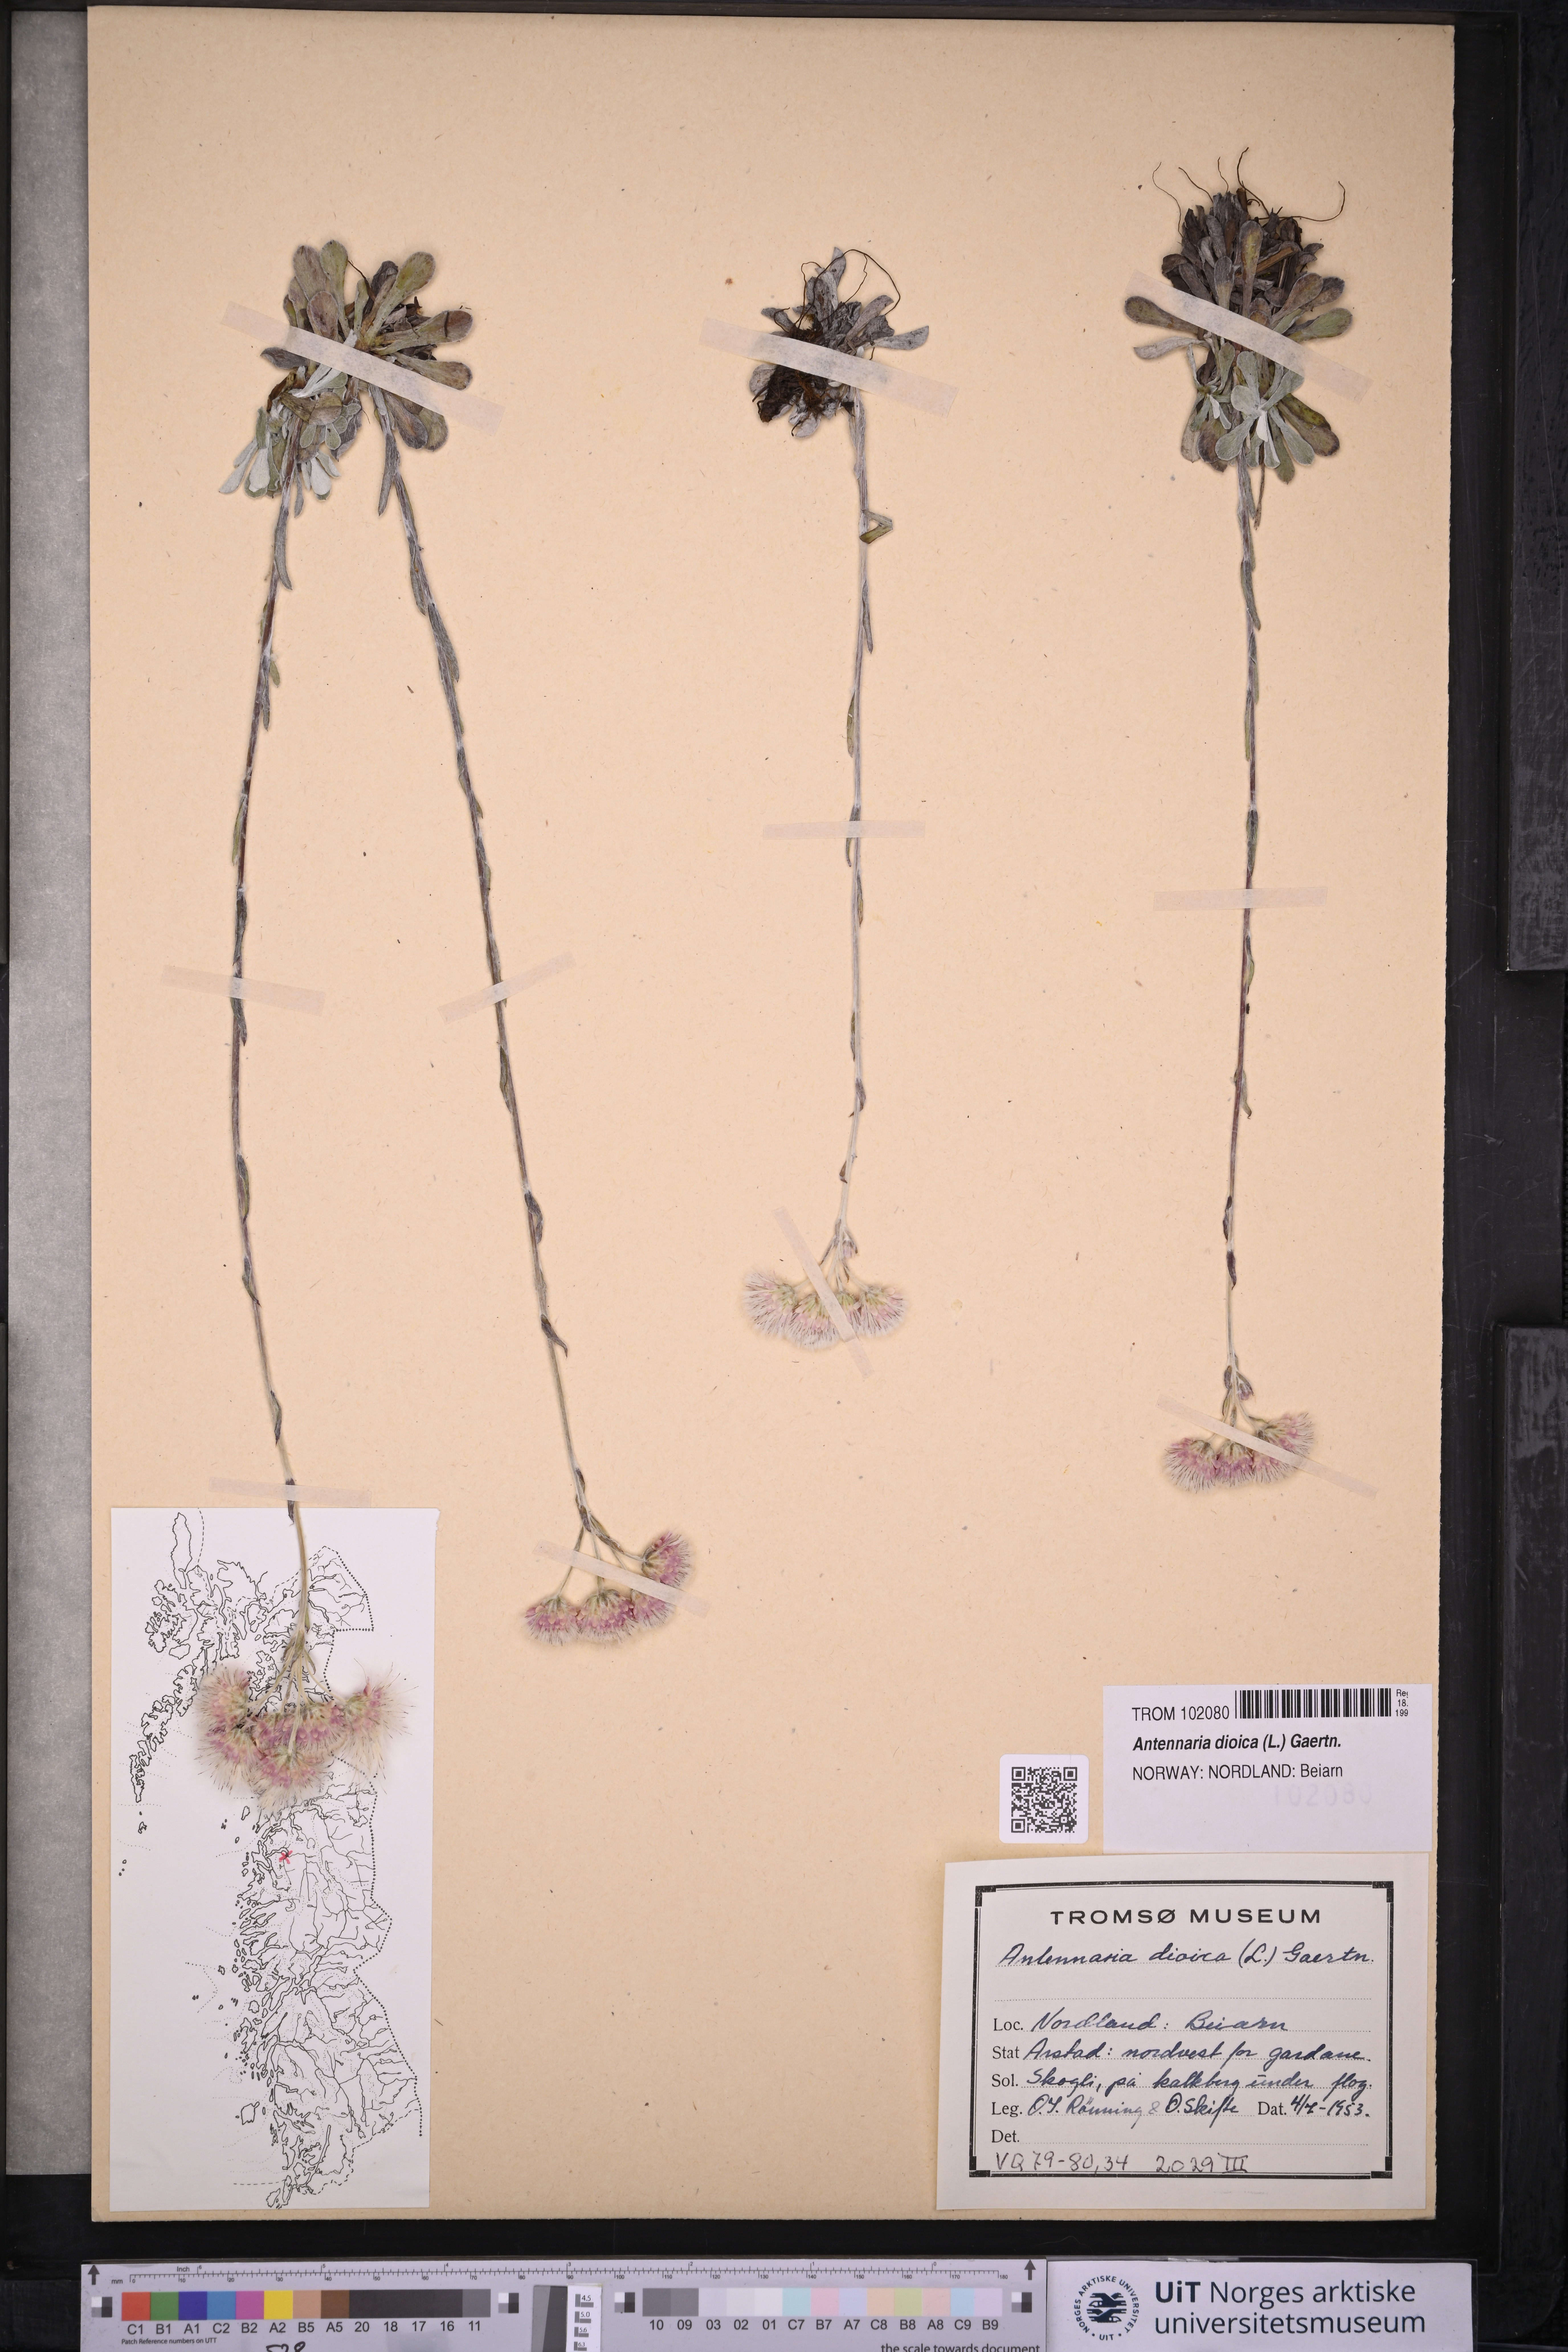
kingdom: Plantae
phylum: Tracheophyta
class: Magnoliopsida
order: Asterales
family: Asteraceae
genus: Antennaria
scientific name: Antennaria dioica
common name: Mountain everlasting
